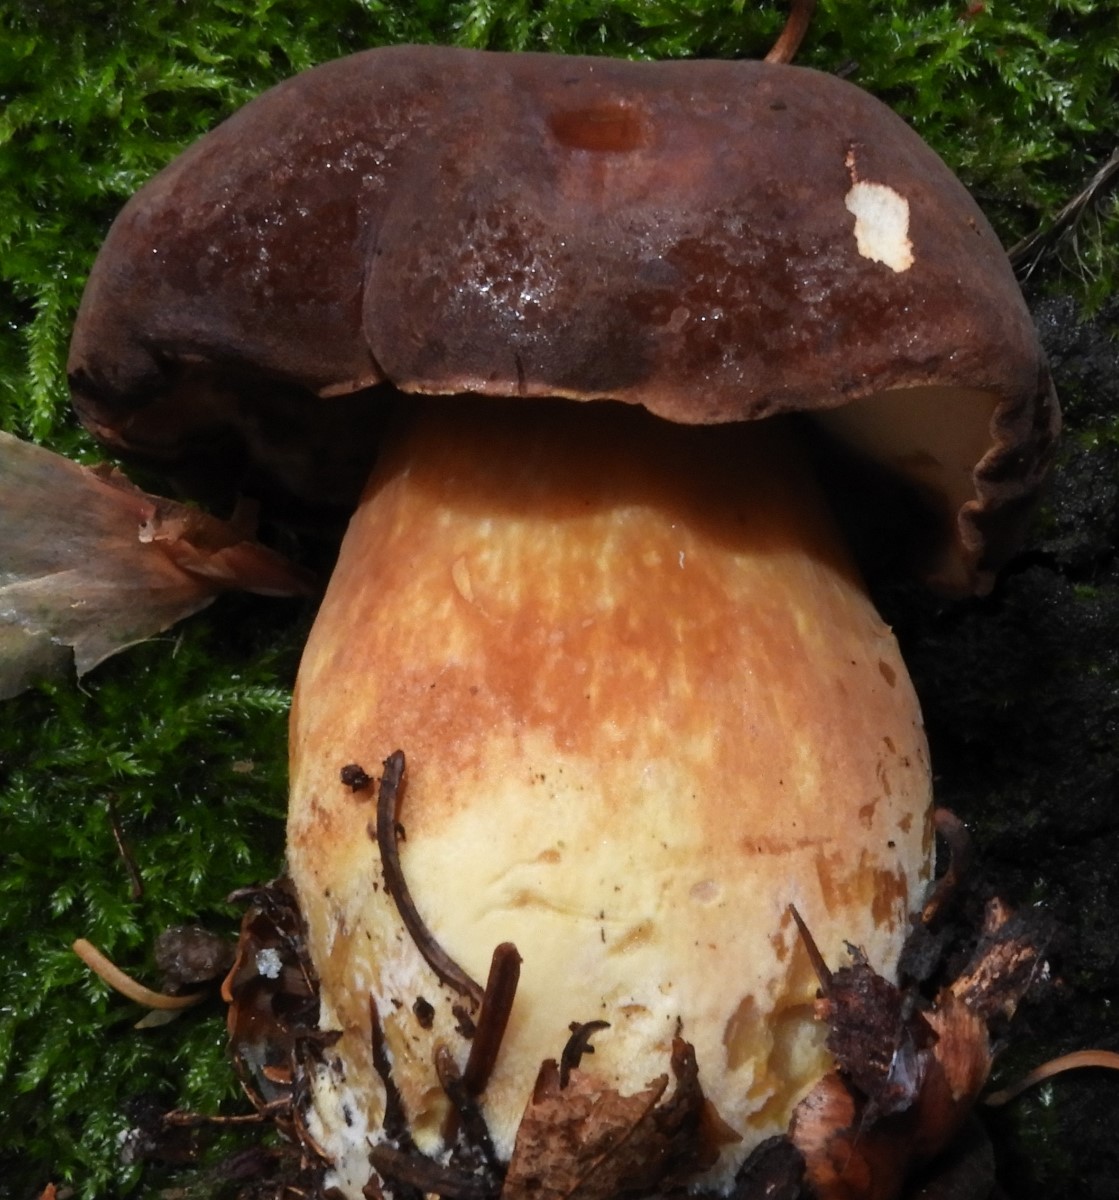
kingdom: Fungi
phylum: Basidiomycota
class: Agaricomycetes
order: Boletales
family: Boletaceae
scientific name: Boletaceae
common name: rørhatfamilien
